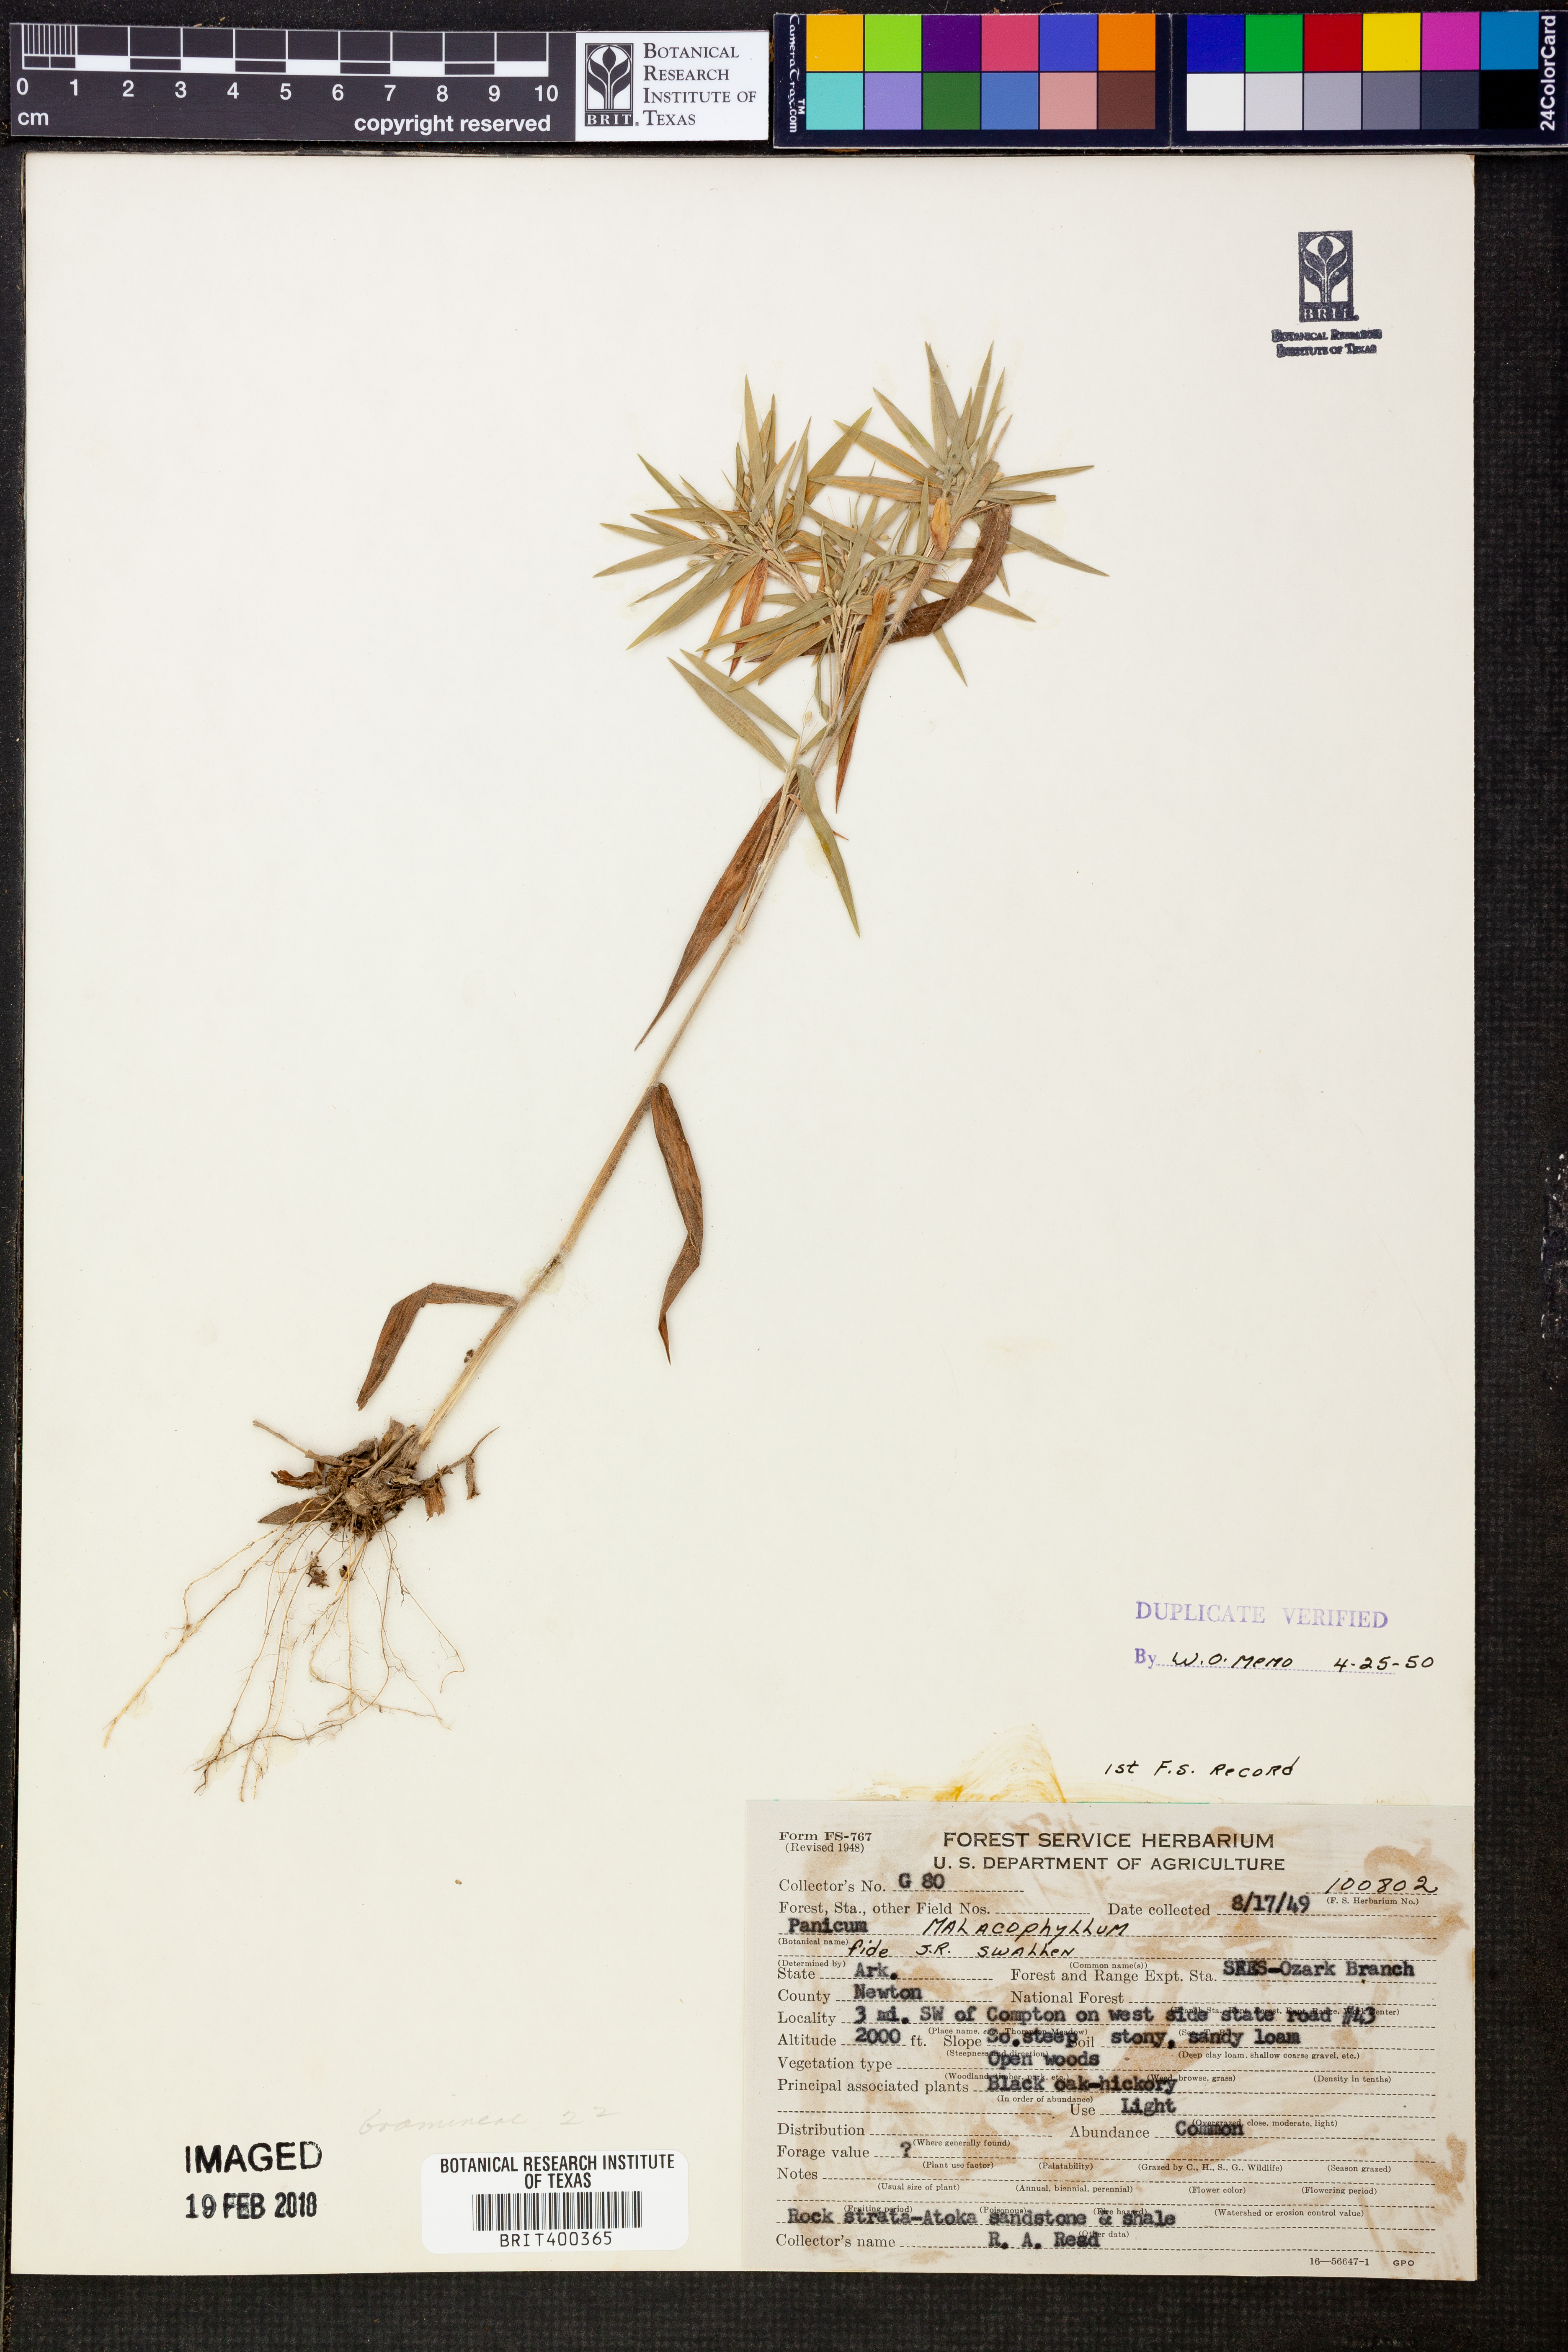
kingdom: Plantae
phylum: Tracheophyta
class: Liliopsida
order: Poales
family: Poaceae
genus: Dichanthelium
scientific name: Dichanthelium malacophyllum
